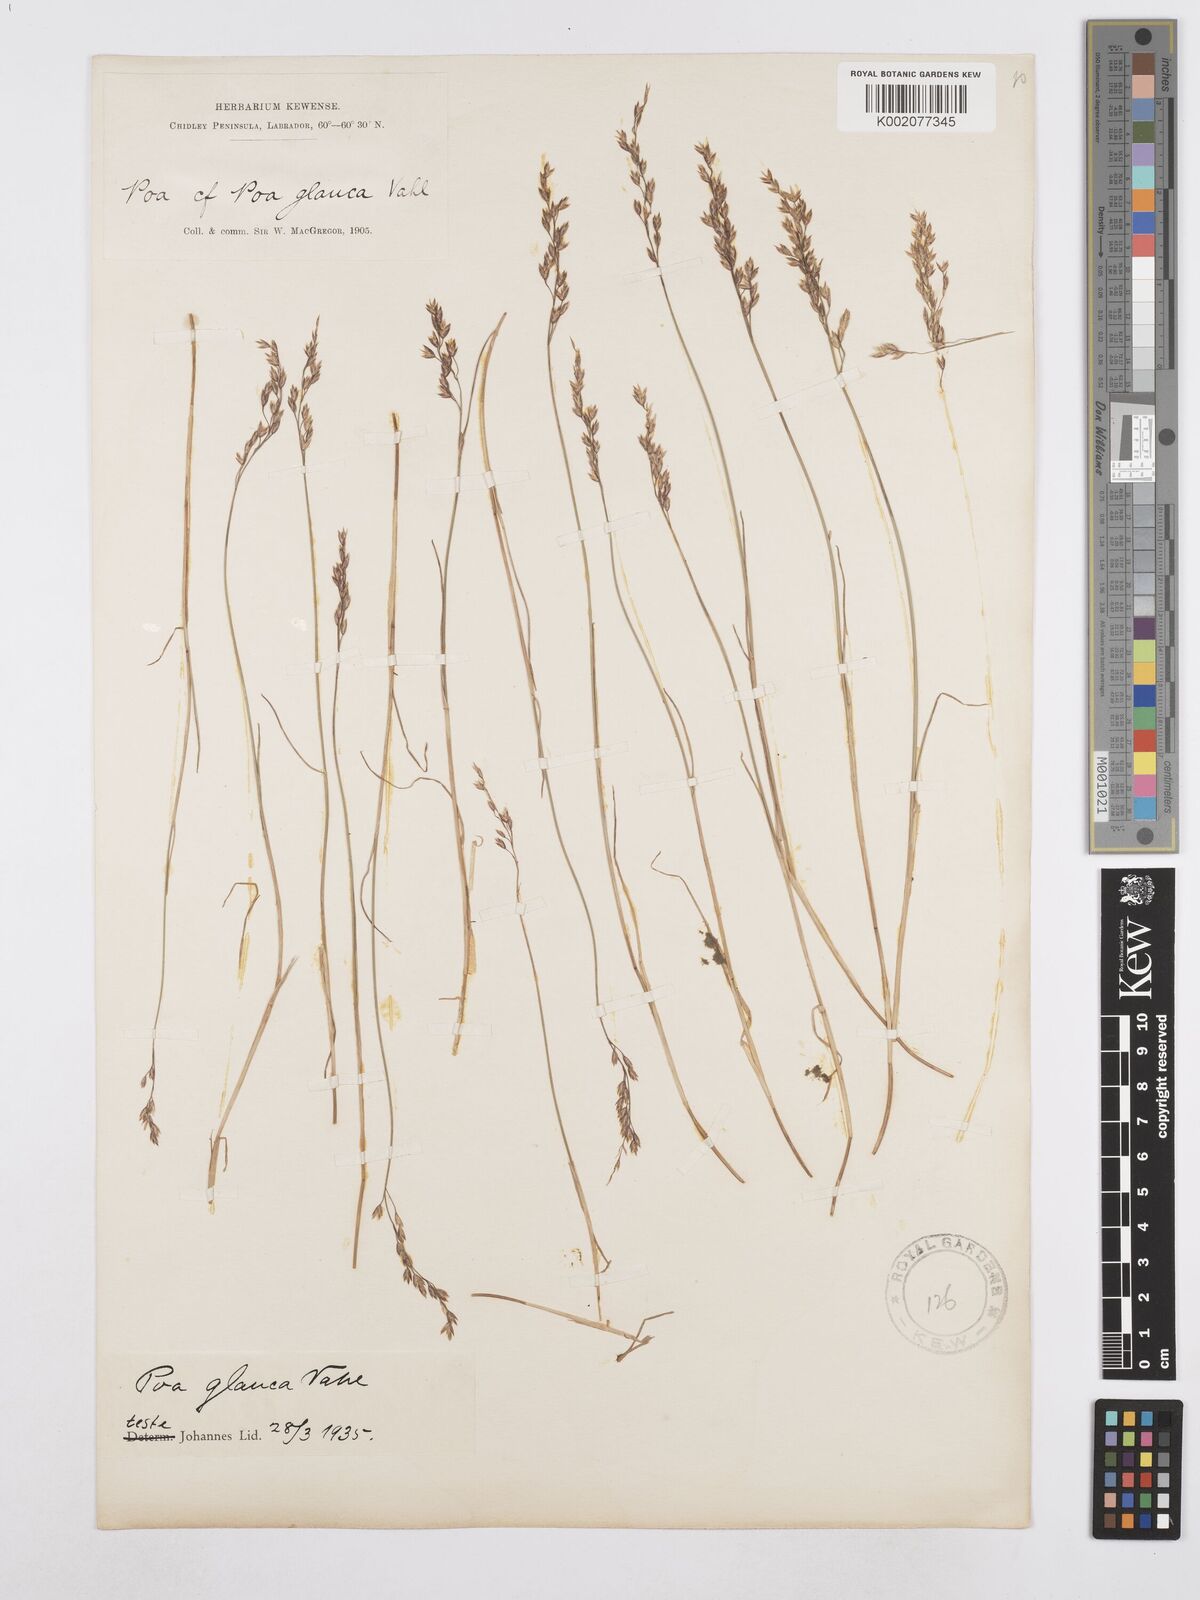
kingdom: Plantae
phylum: Tracheophyta
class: Liliopsida
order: Poales
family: Poaceae
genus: Poa
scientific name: Poa glauca
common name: Glaucous bluegrass
